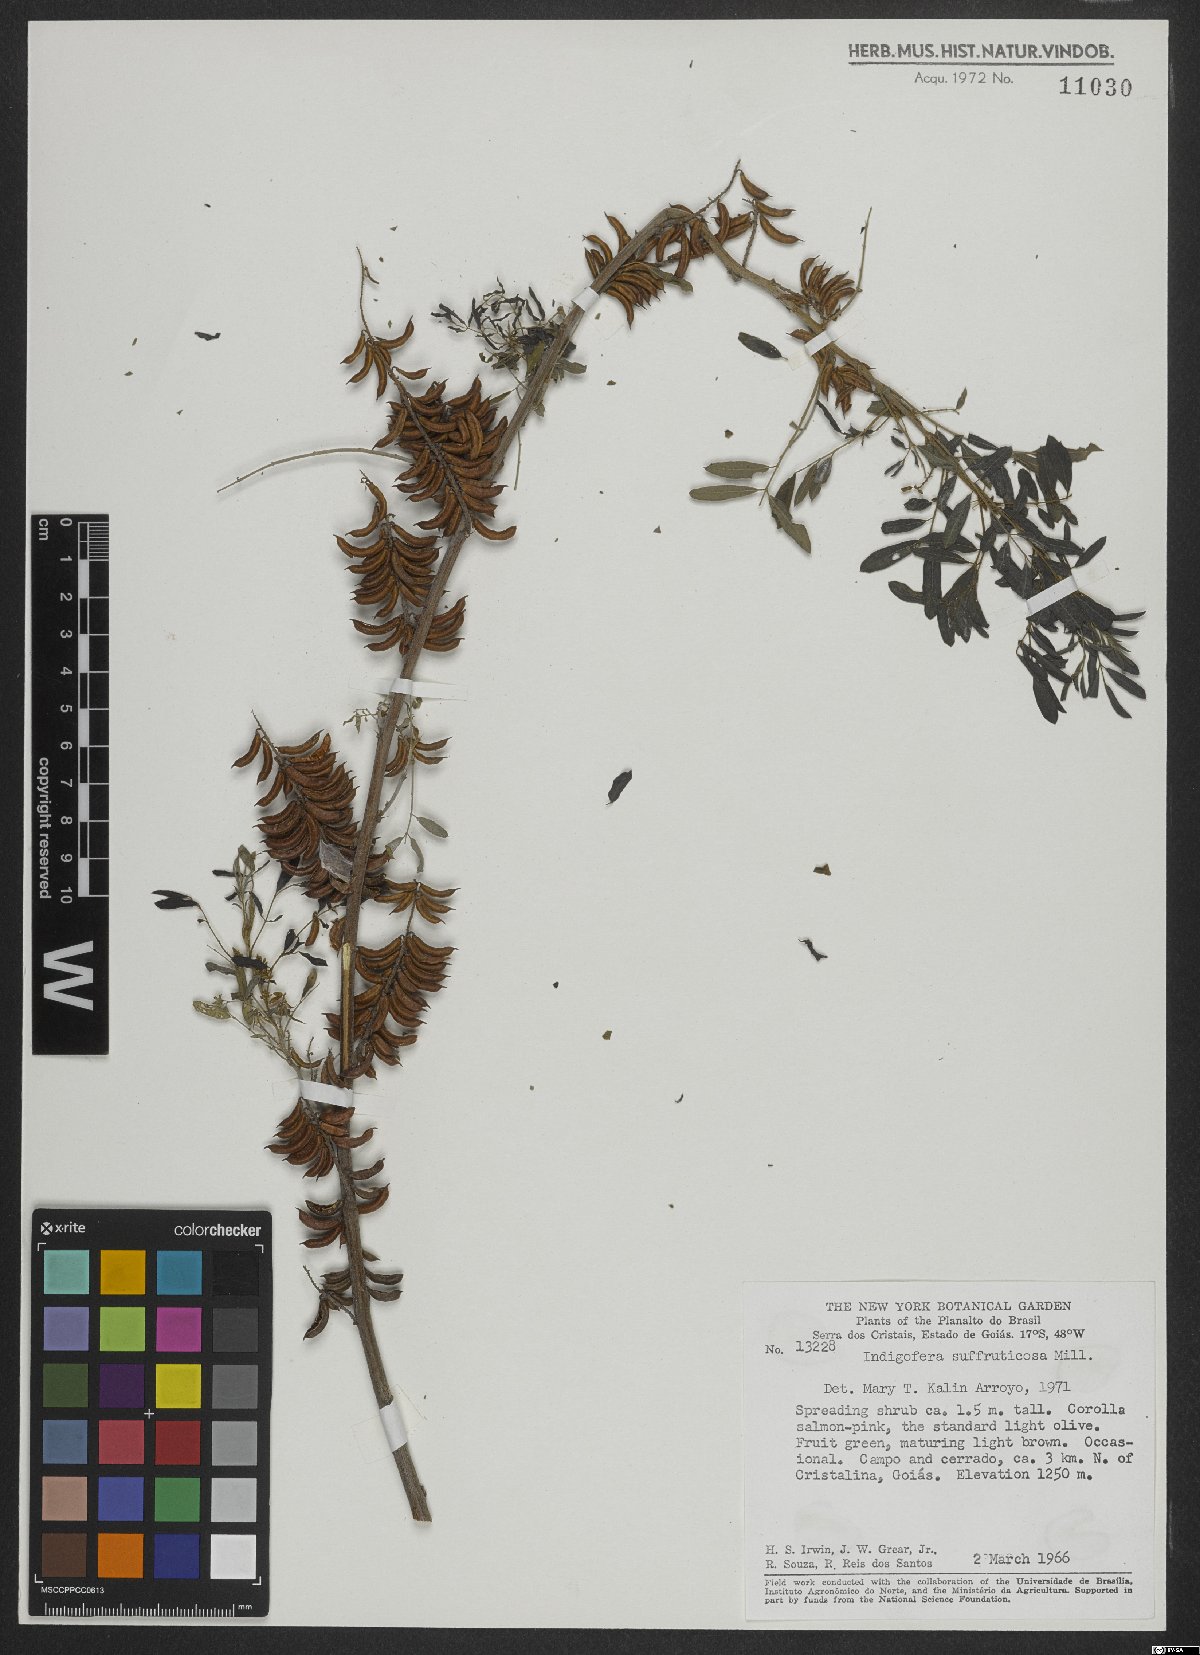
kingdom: Plantae
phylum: Tracheophyta
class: Magnoliopsida
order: Fabales
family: Fabaceae
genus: Indigofera
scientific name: Indigofera suffruticosa
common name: Anil de pasto
